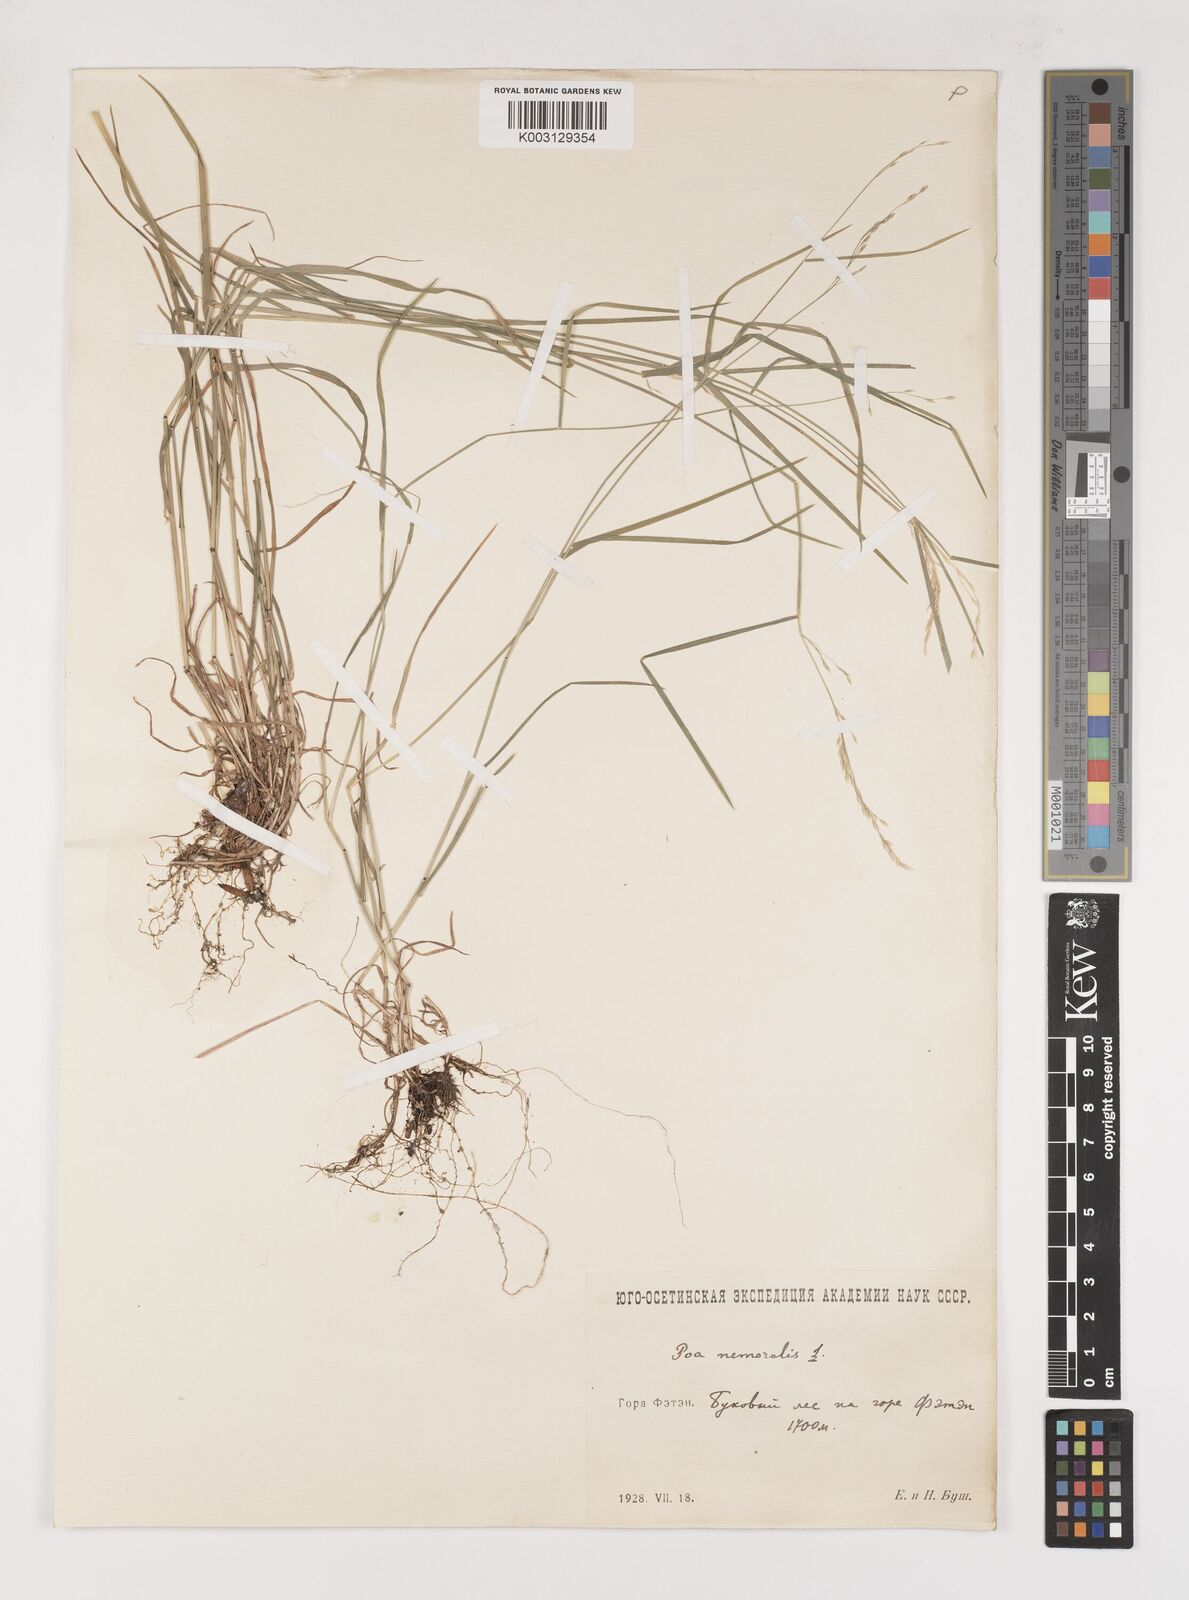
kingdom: Plantae
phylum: Tracheophyta
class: Liliopsida
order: Poales
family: Poaceae
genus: Poa
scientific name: Poa nemoralis
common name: Wood bluegrass
